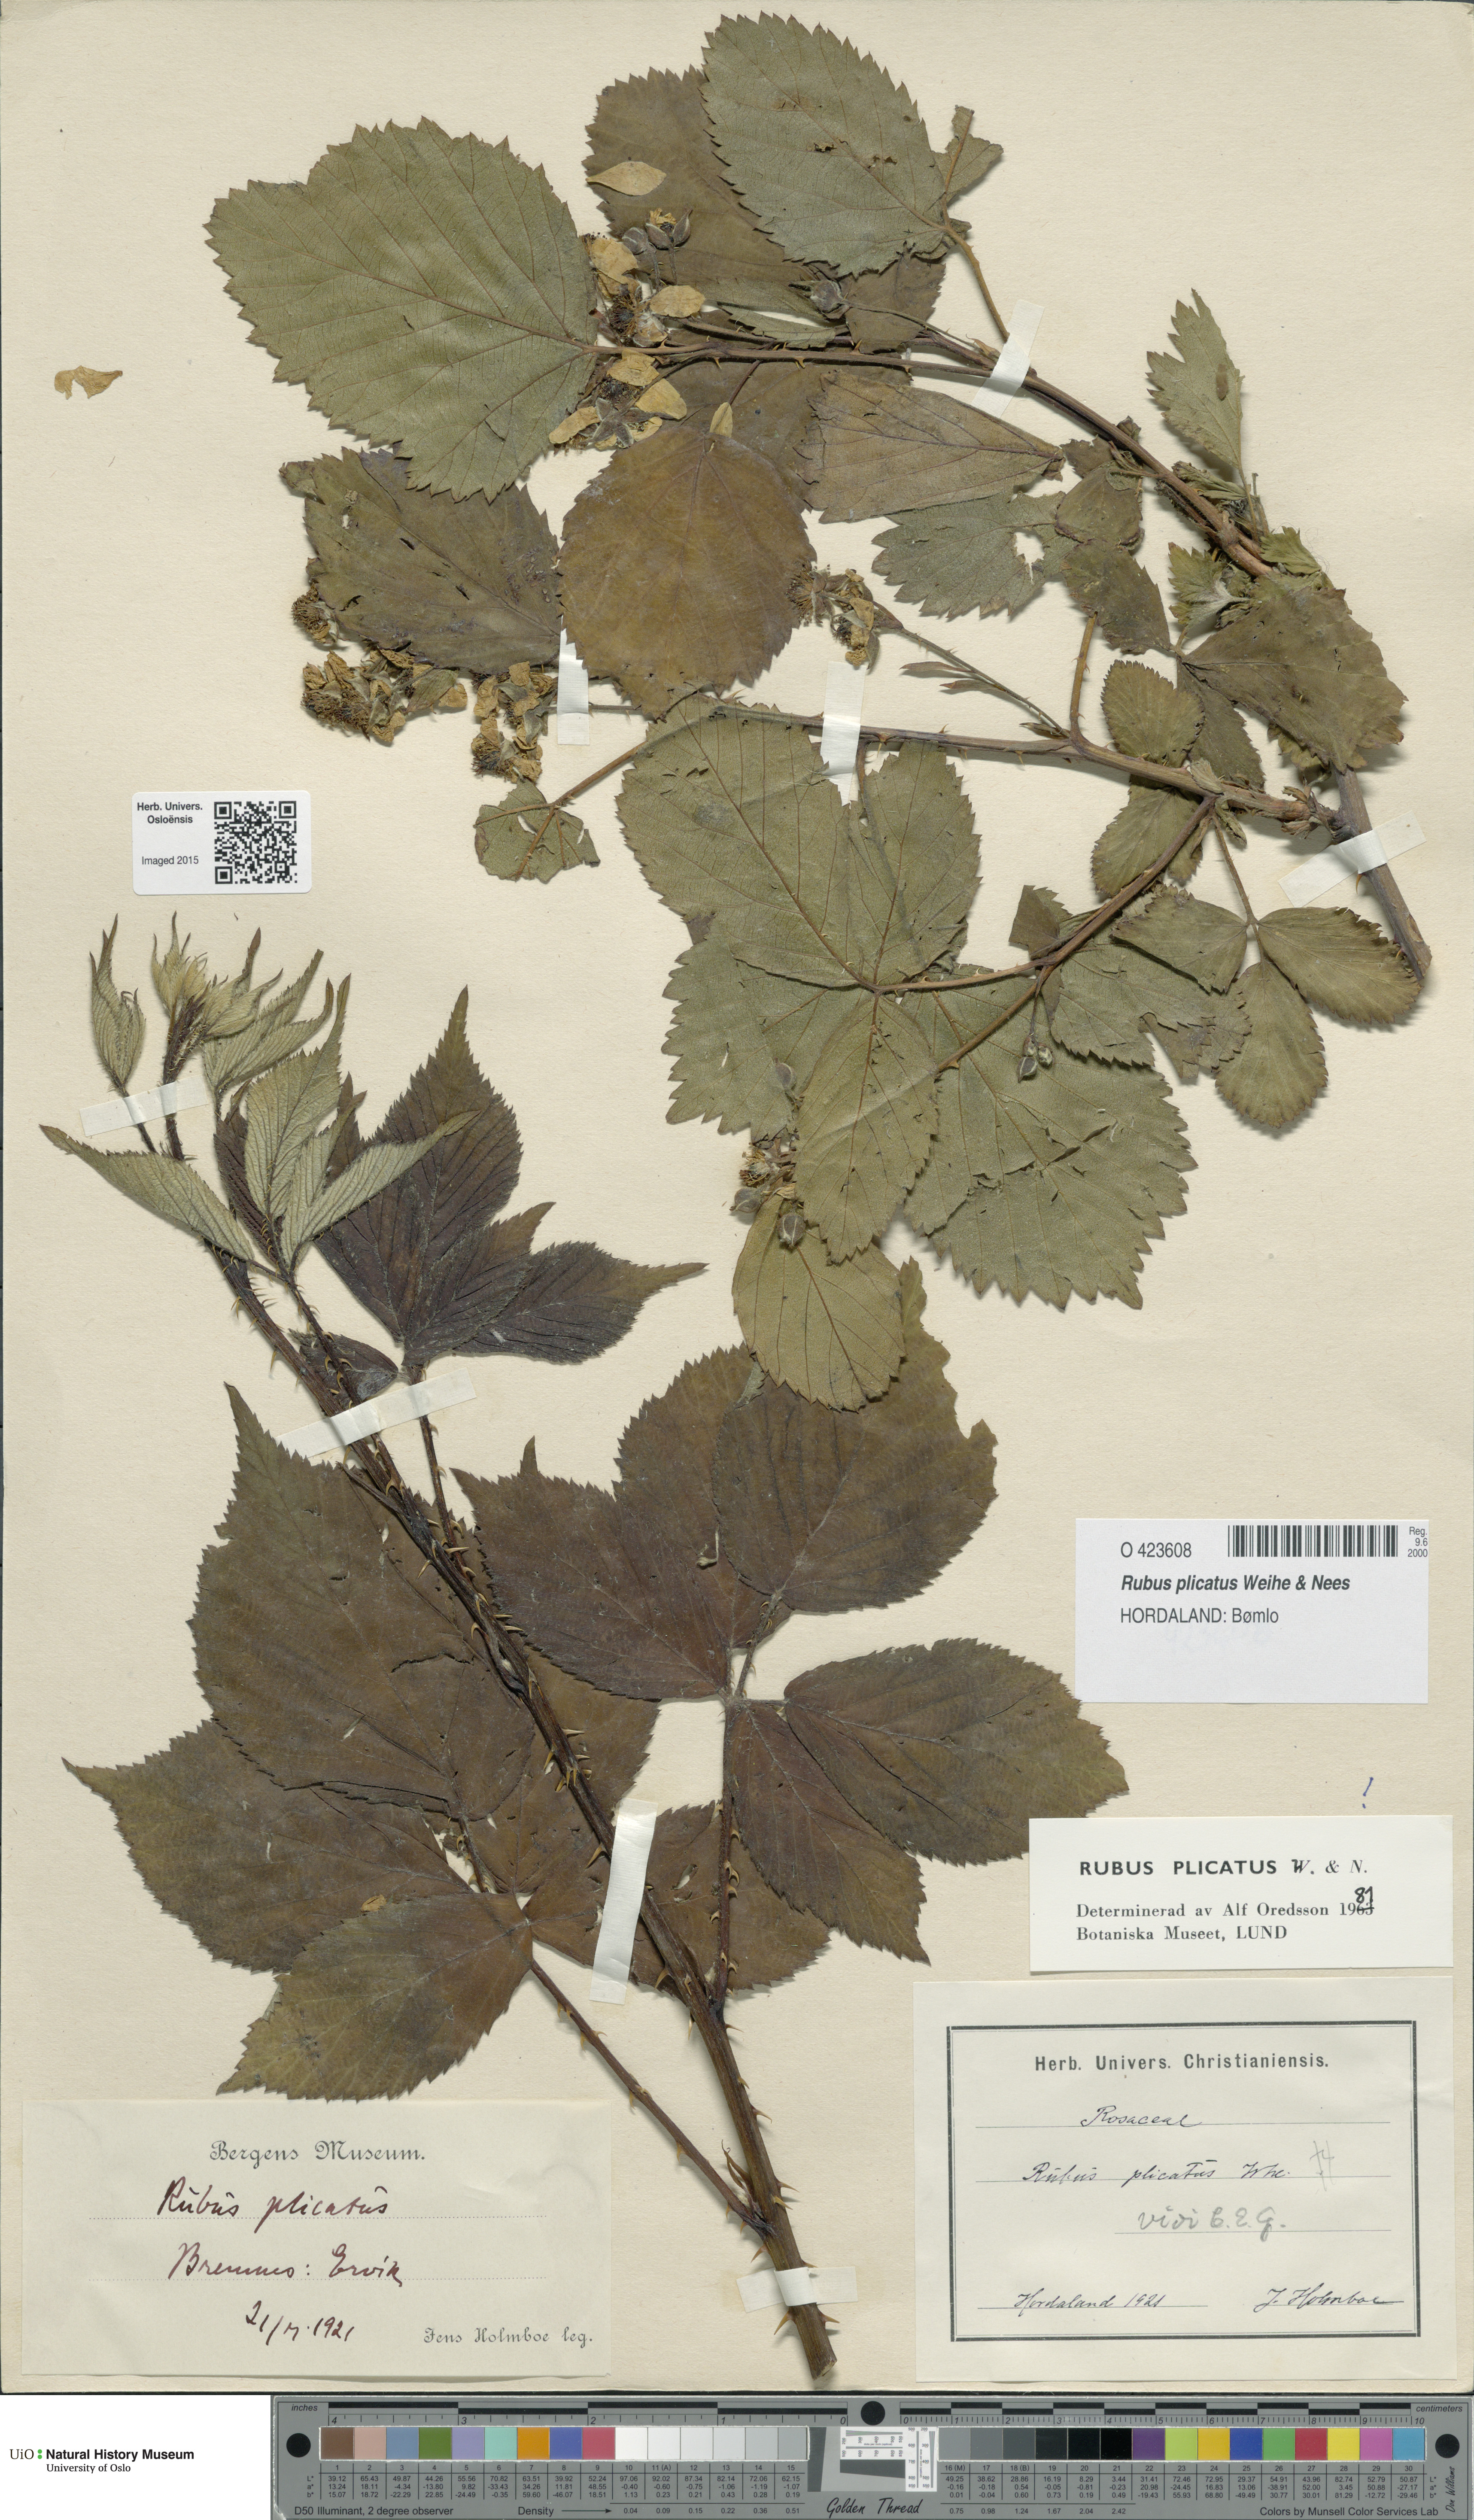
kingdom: Plantae
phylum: Tracheophyta
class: Magnoliopsida
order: Rosales
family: Rosaceae
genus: Rubus
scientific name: Rubus fruticosus
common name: Blackberry, bramble
